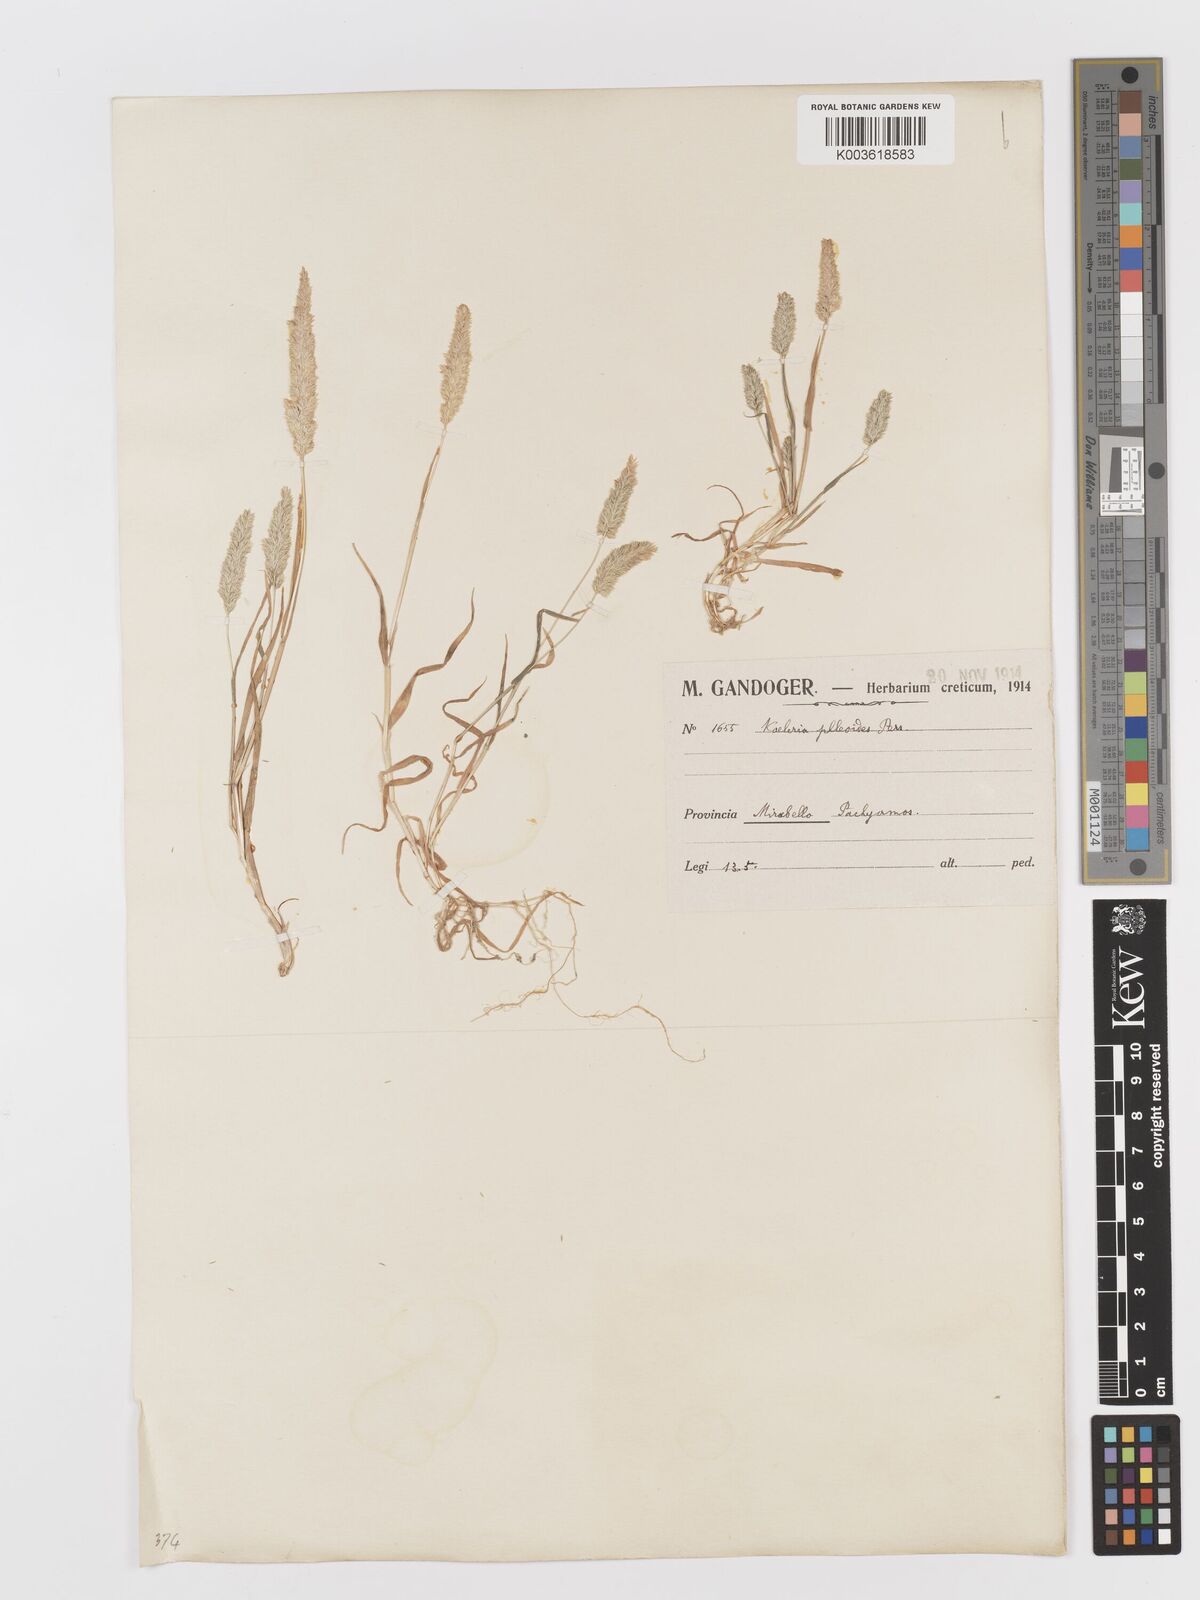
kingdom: Plantae
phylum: Tracheophyta
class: Liliopsida
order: Poales
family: Poaceae
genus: Rostraria
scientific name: Rostraria cristata
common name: Mediterranean hair-grass
